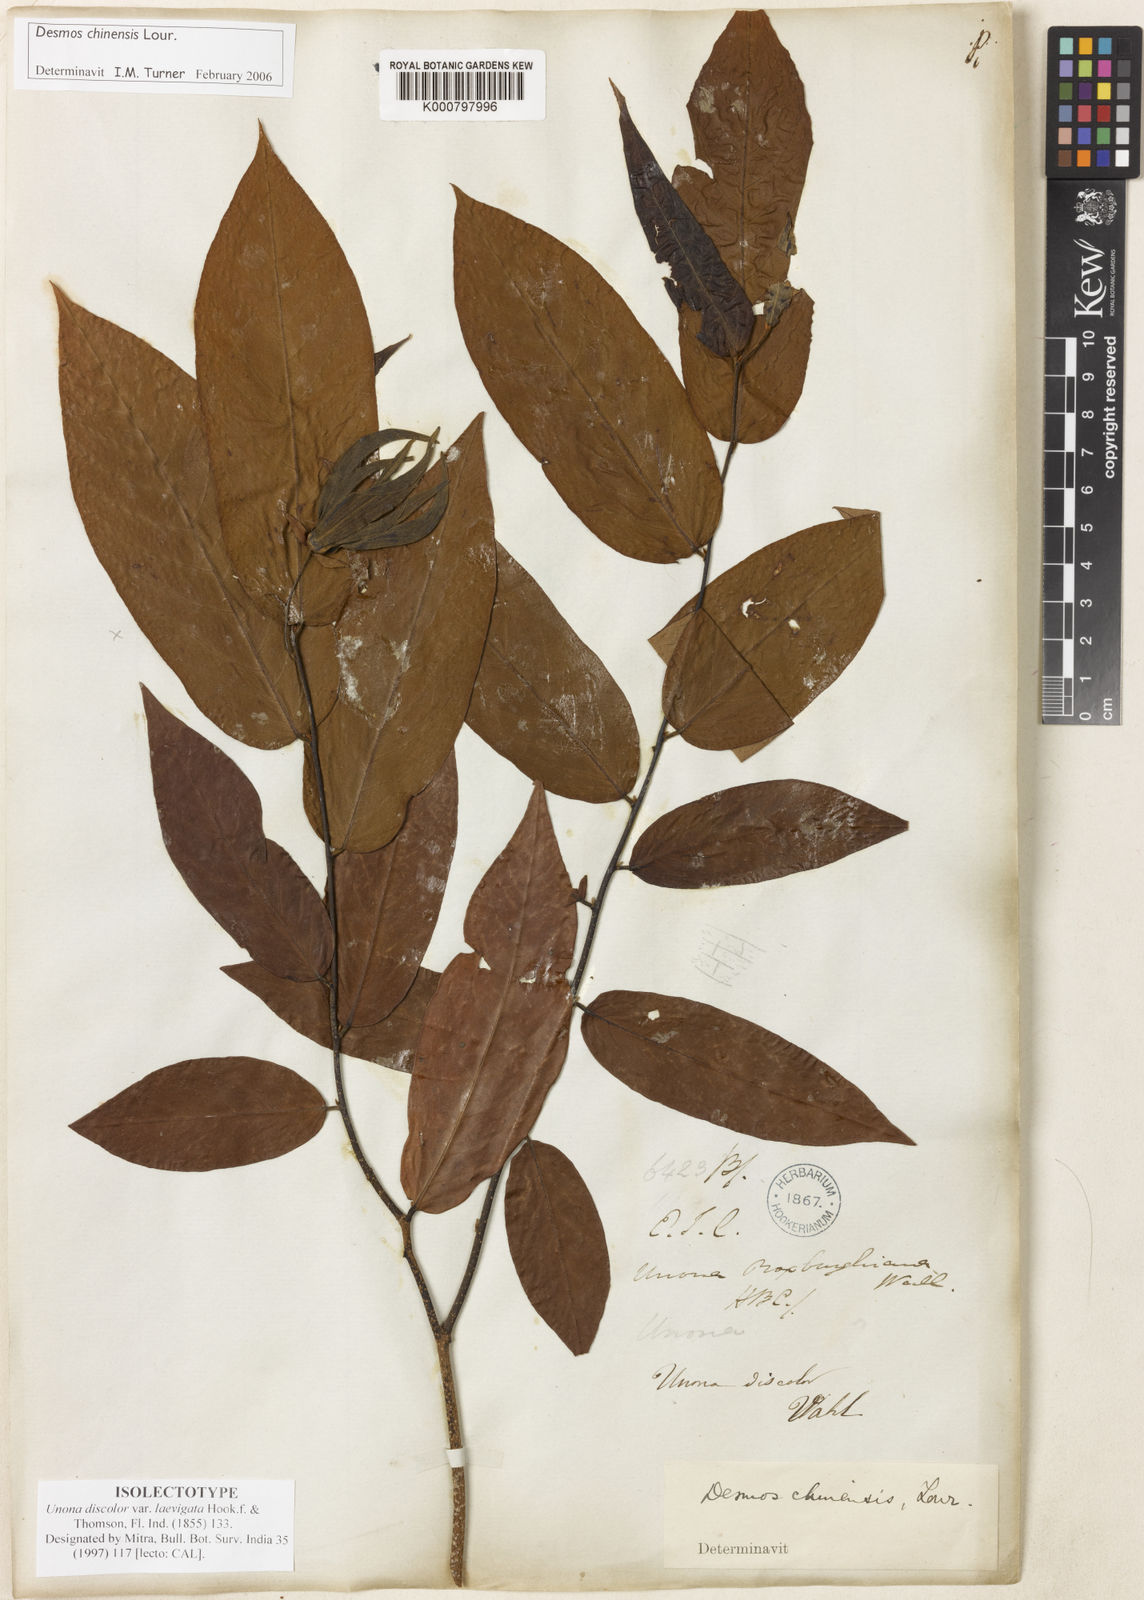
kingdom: Plantae
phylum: Tracheophyta
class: Magnoliopsida
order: Magnoliales
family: Annonaceae
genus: Desmos
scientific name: Desmos chinensis
